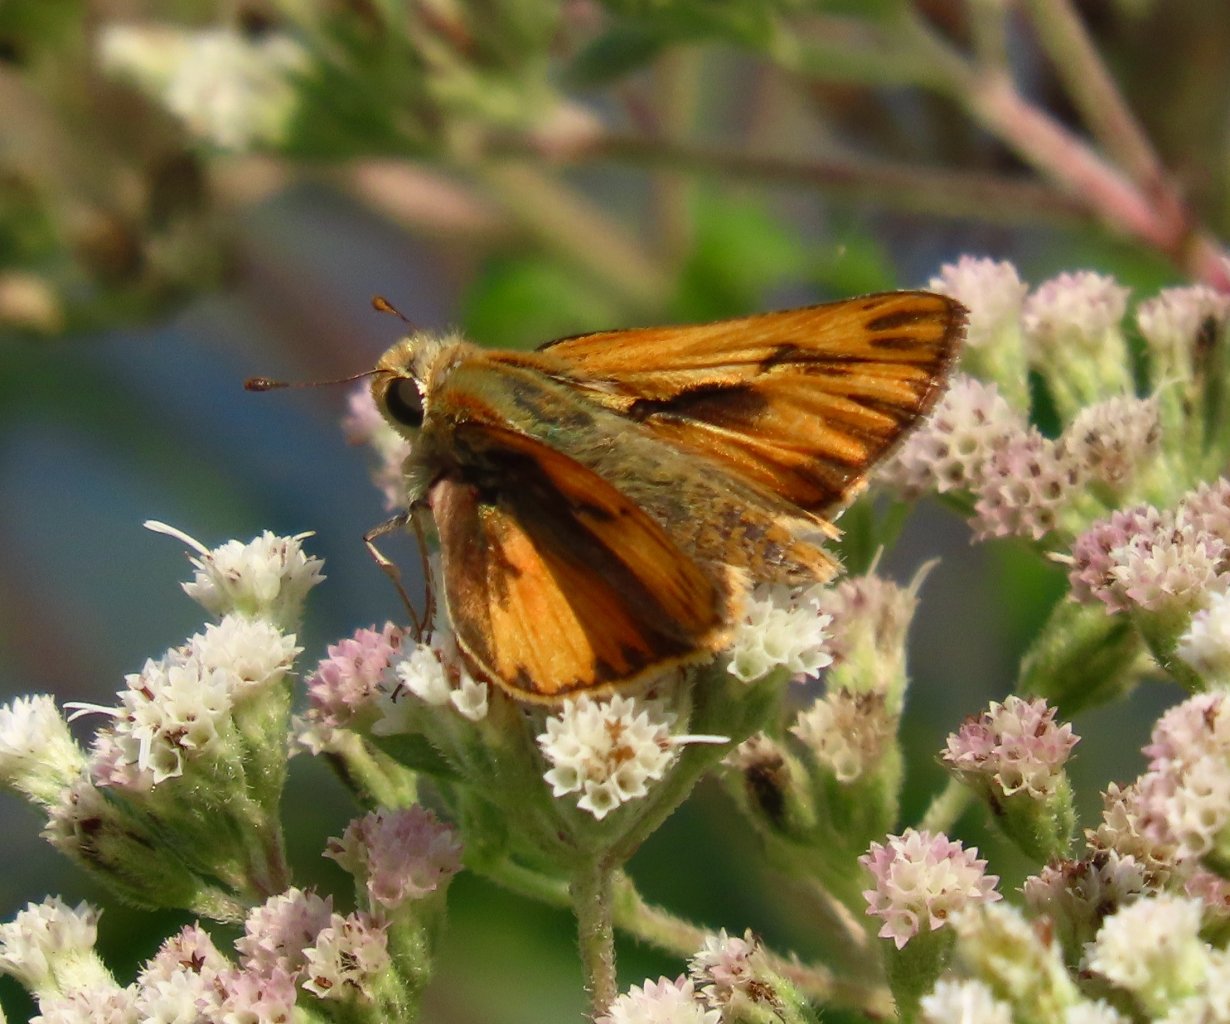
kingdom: Animalia
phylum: Arthropoda
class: Insecta
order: Lepidoptera
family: Hesperiidae
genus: Hylephila
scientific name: Hylephila phyleus
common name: Fiery Skipper
